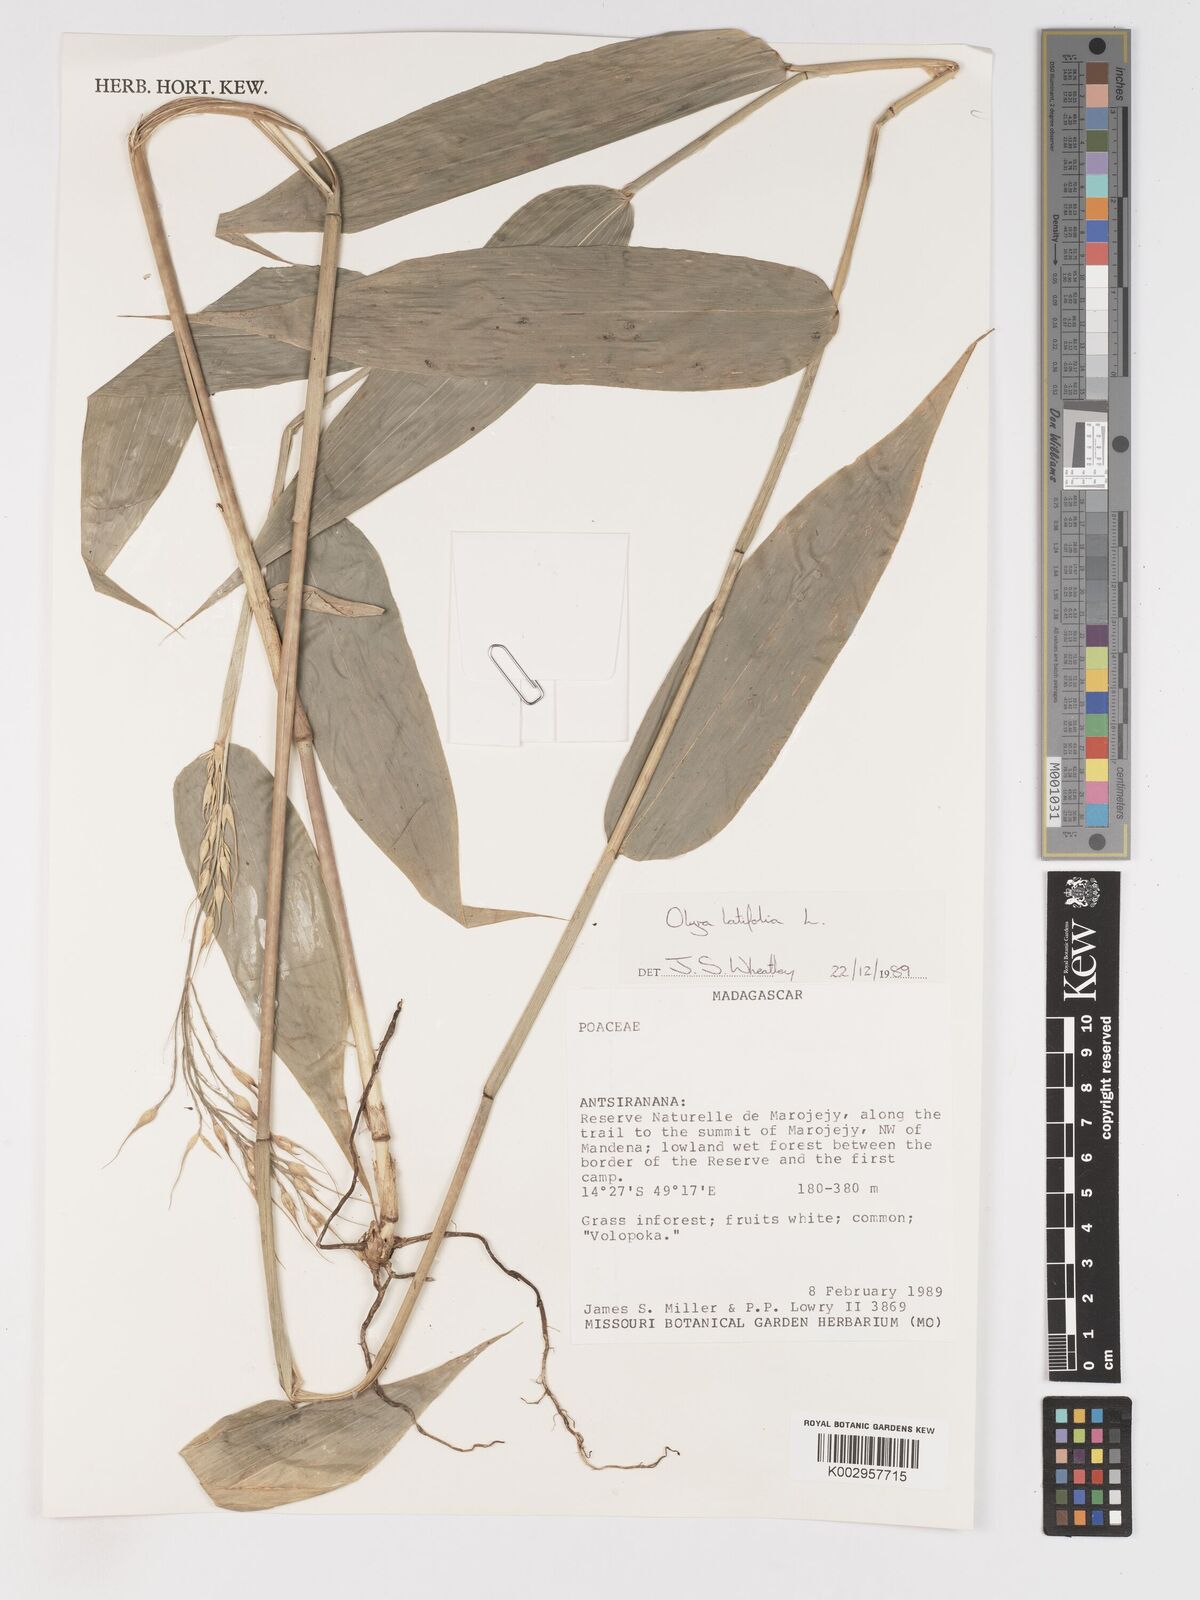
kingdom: Plantae
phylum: Tracheophyta
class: Liliopsida
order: Poales
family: Poaceae
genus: Olyra
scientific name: Olyra latifolia
